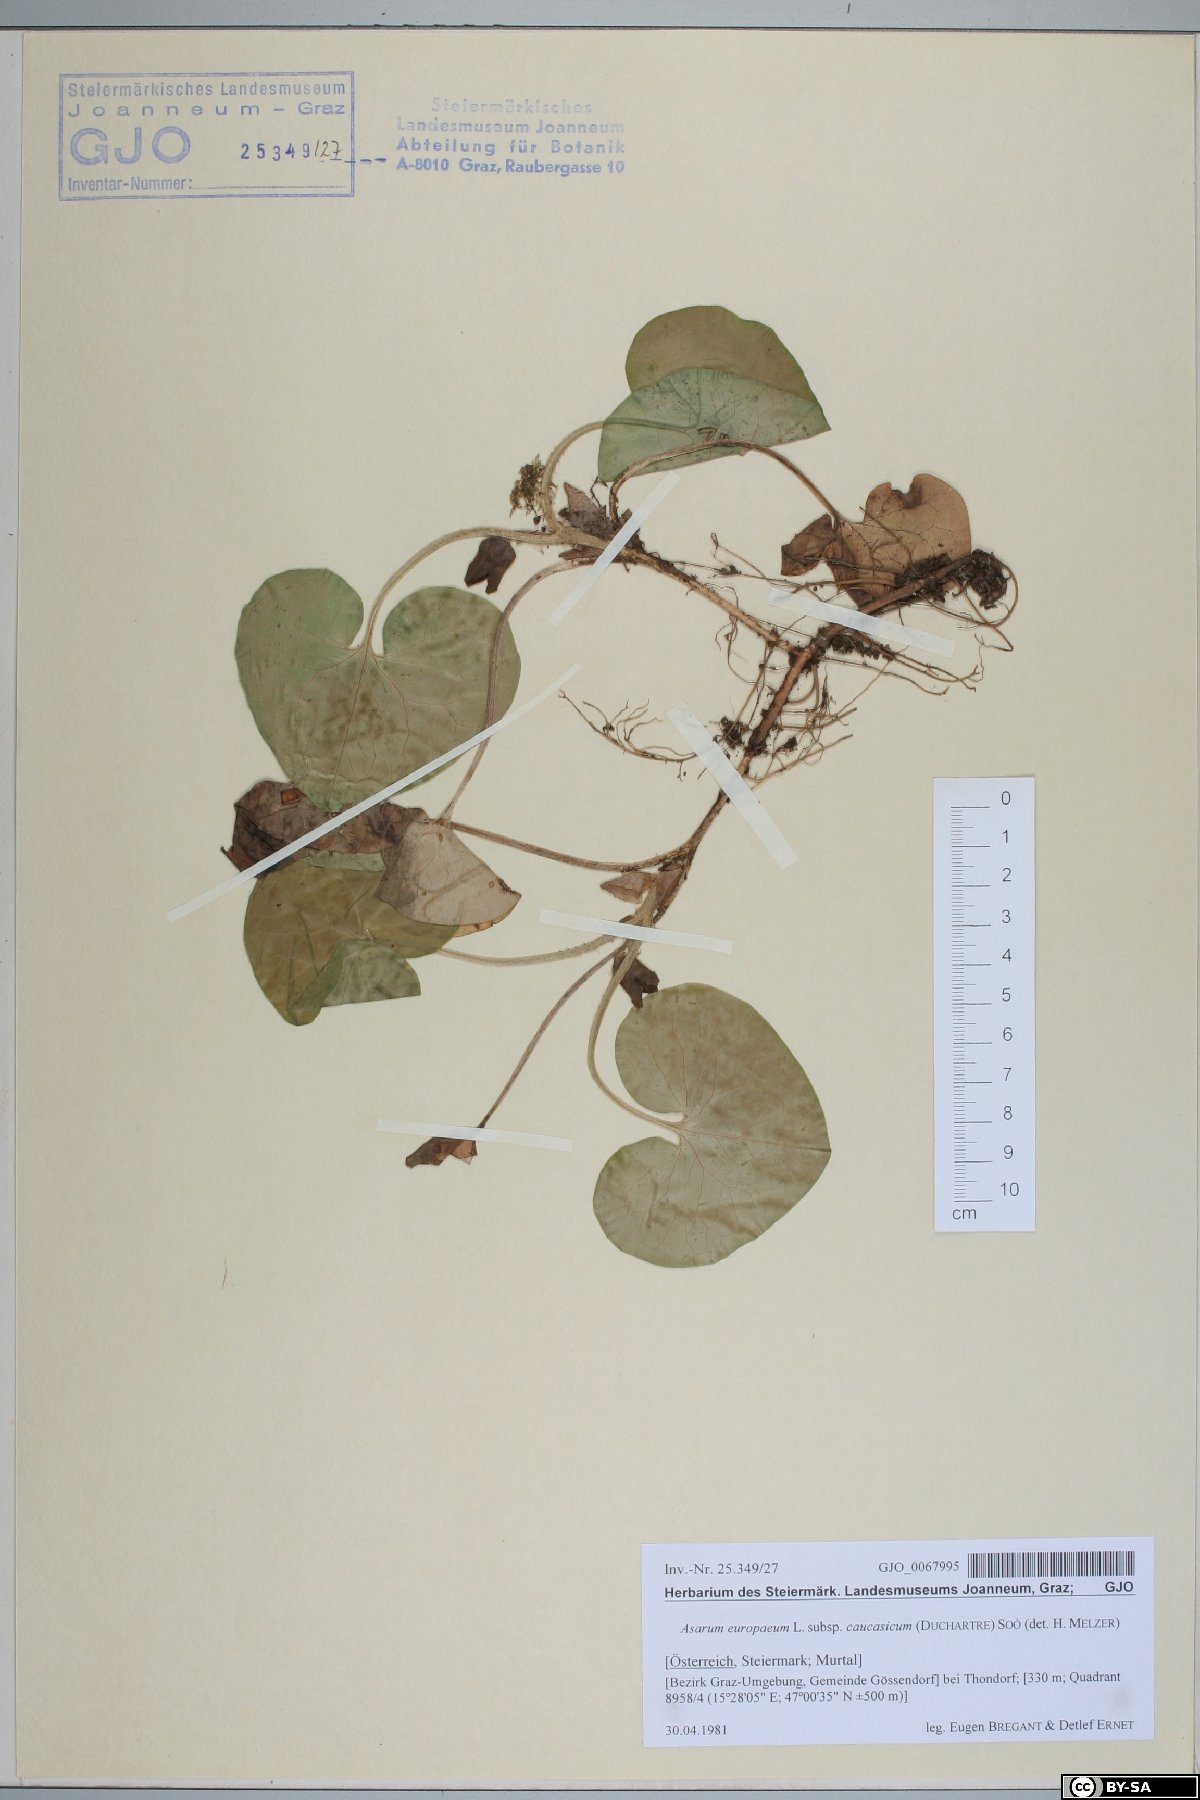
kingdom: Plantae
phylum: Tracheophyta
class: Magnoliopsida
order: Piperales
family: Aristolochiaceae
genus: Asarum
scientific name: Asarum europaeum
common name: Asarabacca
